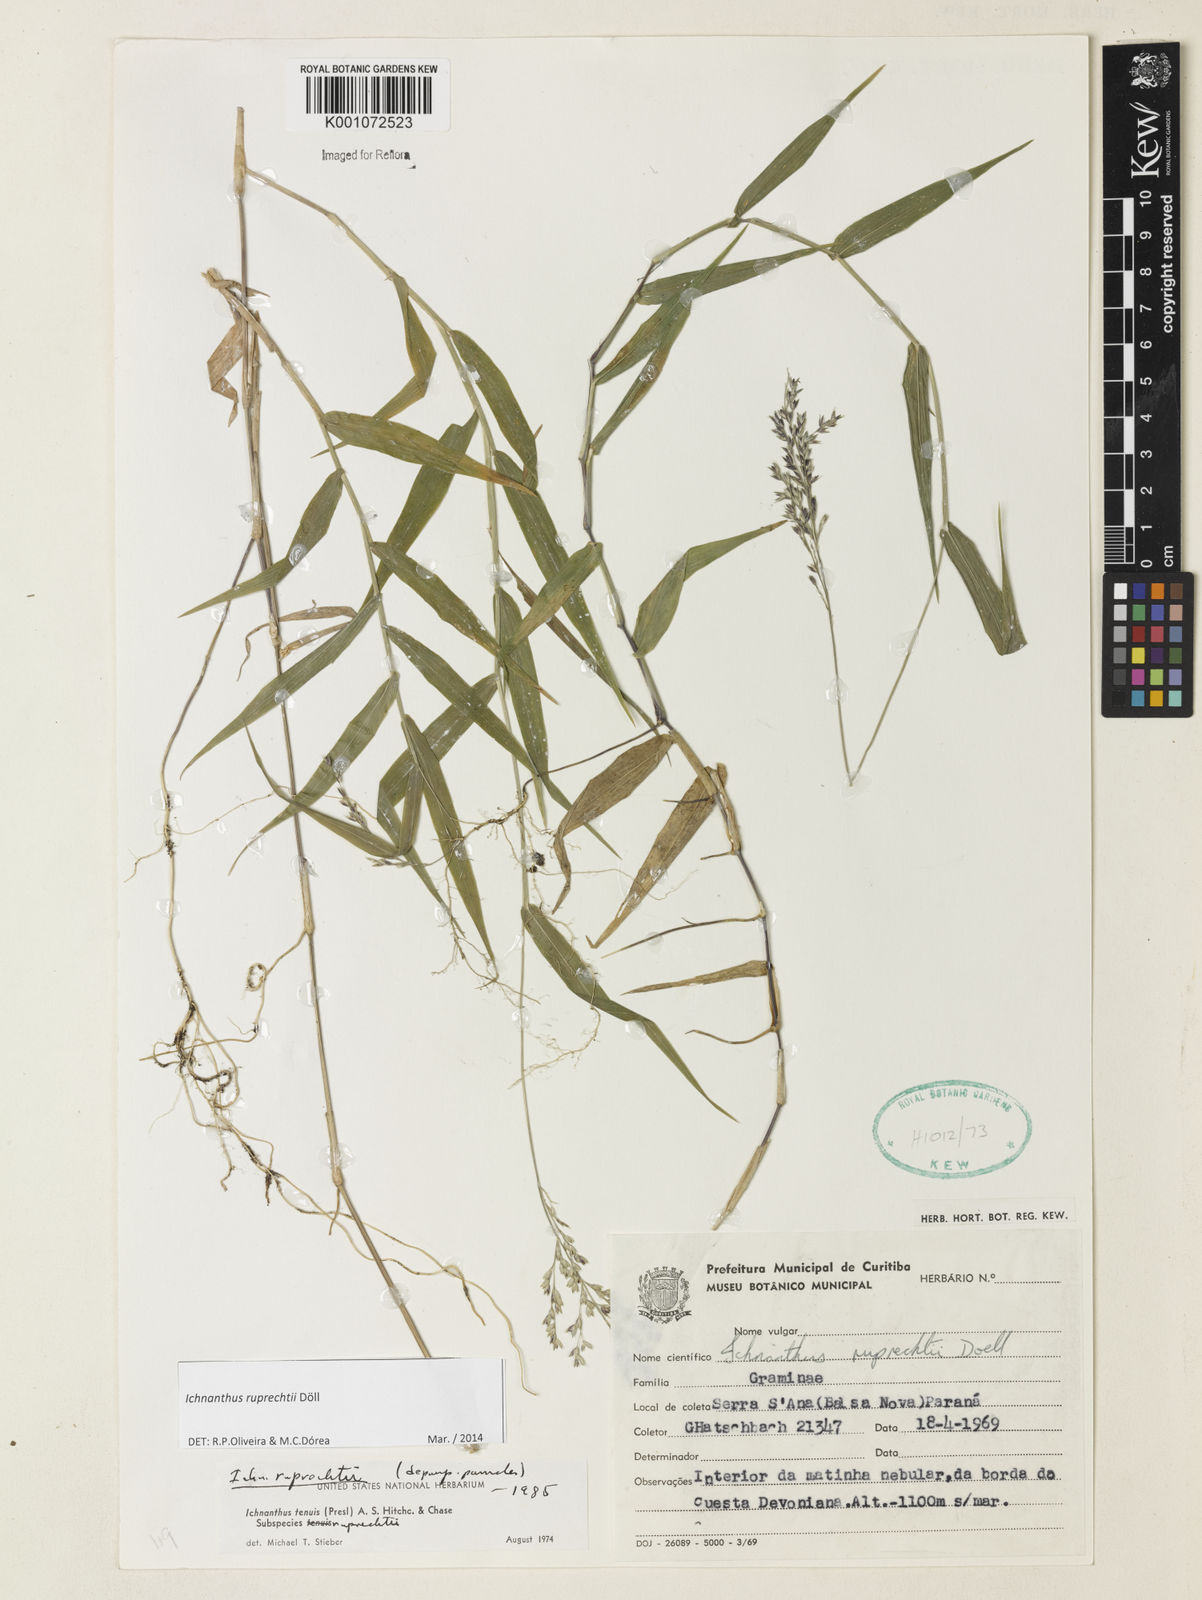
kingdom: Plantae
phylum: Tracheophyta
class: Liliopsida
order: Poales
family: Poaceae
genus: Ichnanthus
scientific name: Ichnanthus
